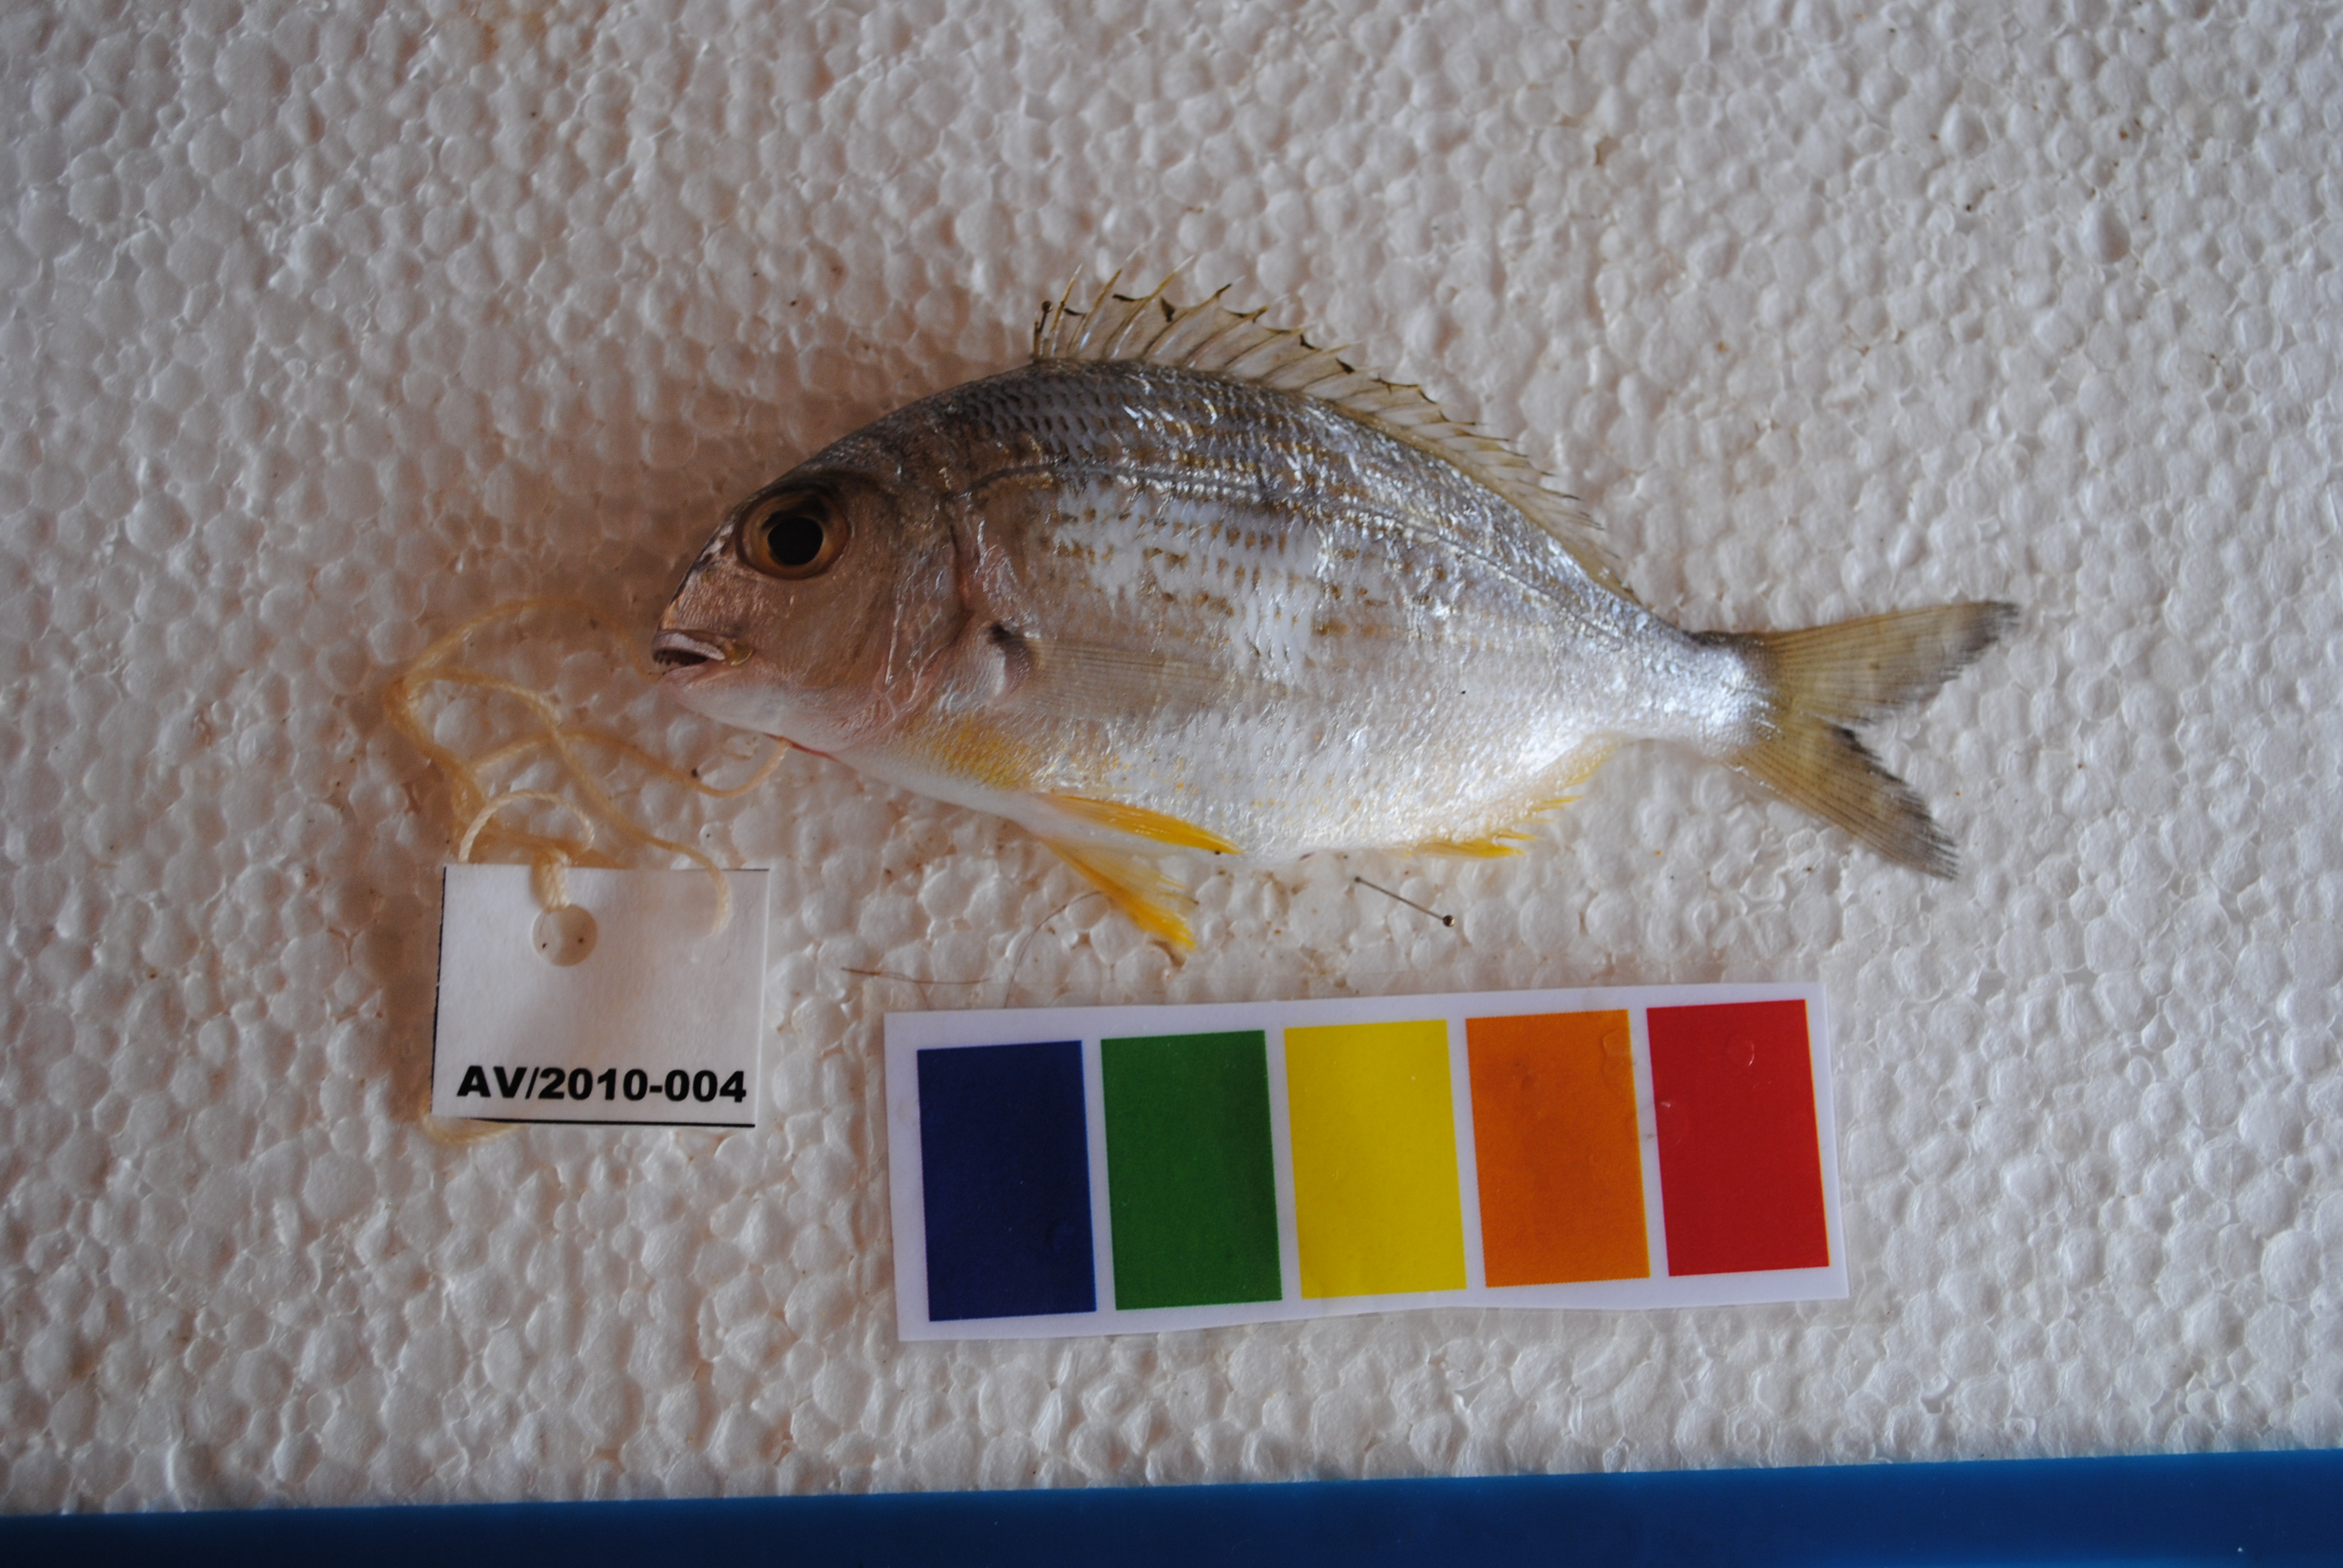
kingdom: Animalia
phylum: Chordata
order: Perciformes
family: Sparidae
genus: Rhabdosargus
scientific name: Rhabdosargus thorpei
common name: Bigeye stumpnose
